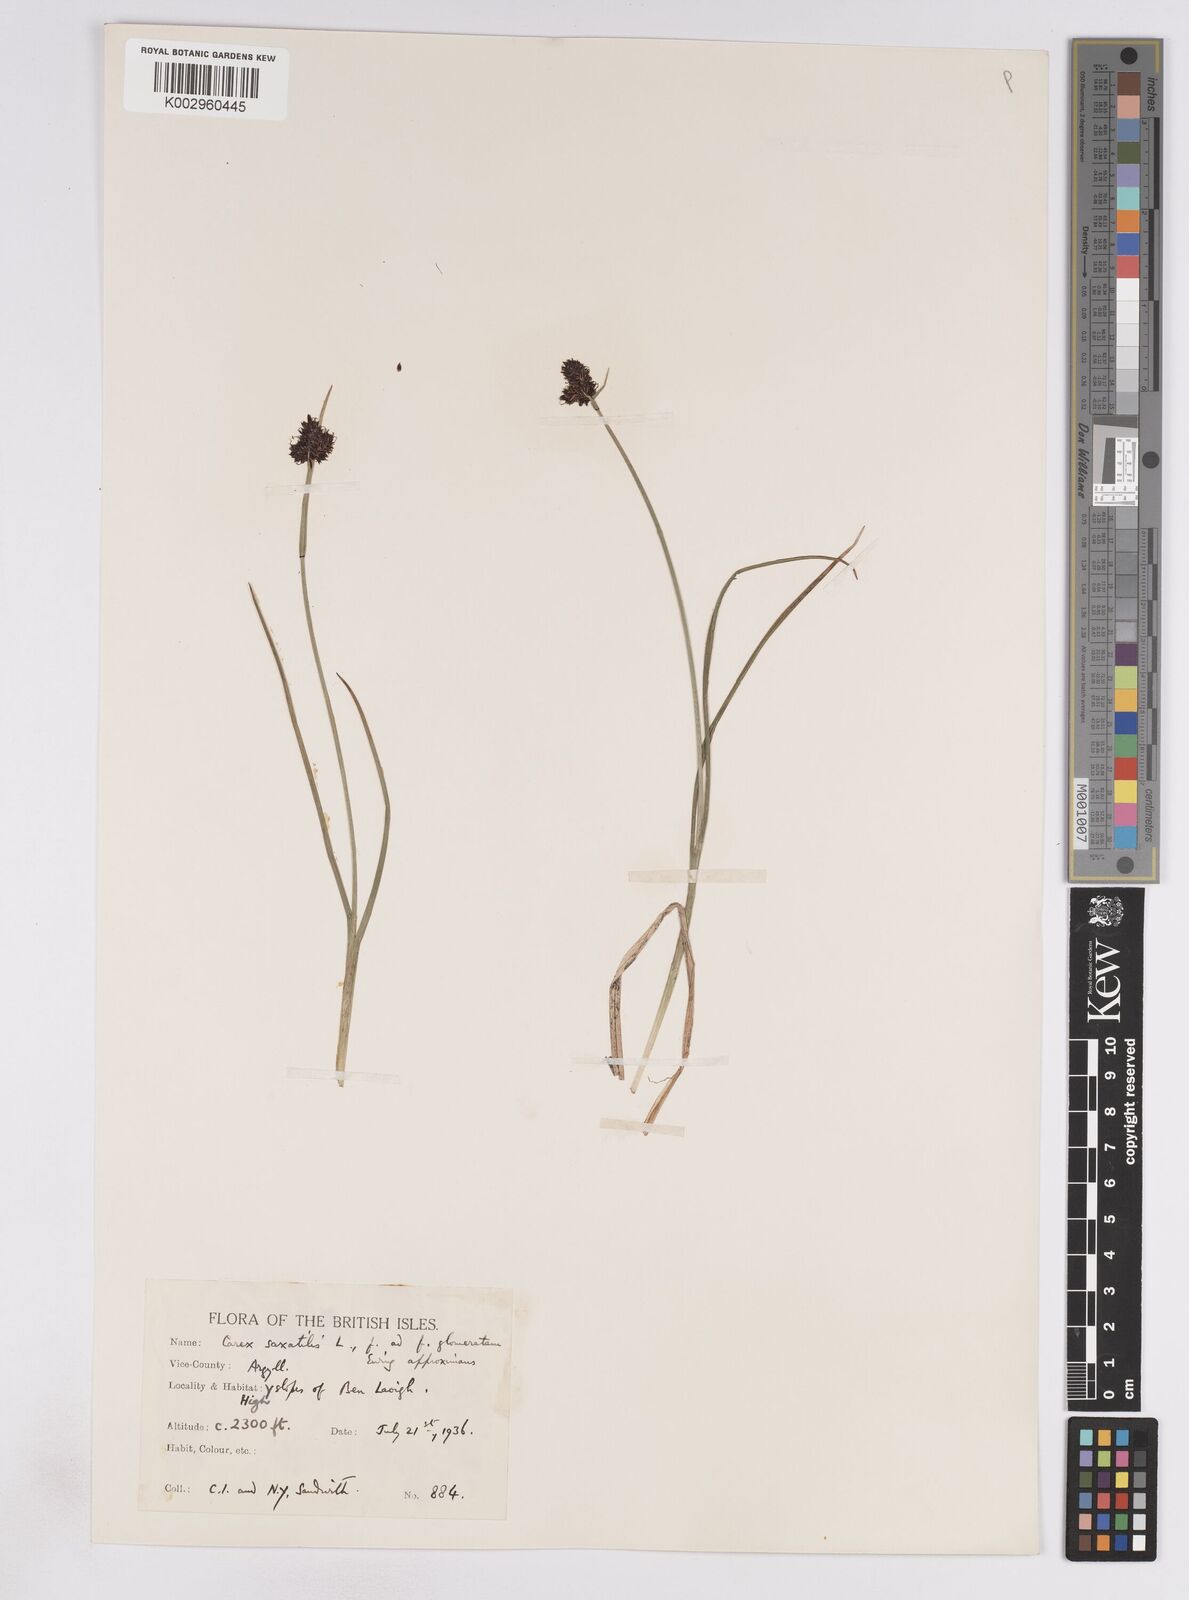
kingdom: Plantae
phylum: Tracheophyta
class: Liliopsida
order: Poales
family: Cyperaceae
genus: Carex
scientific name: Carex saxatilis
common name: Russet sedge
